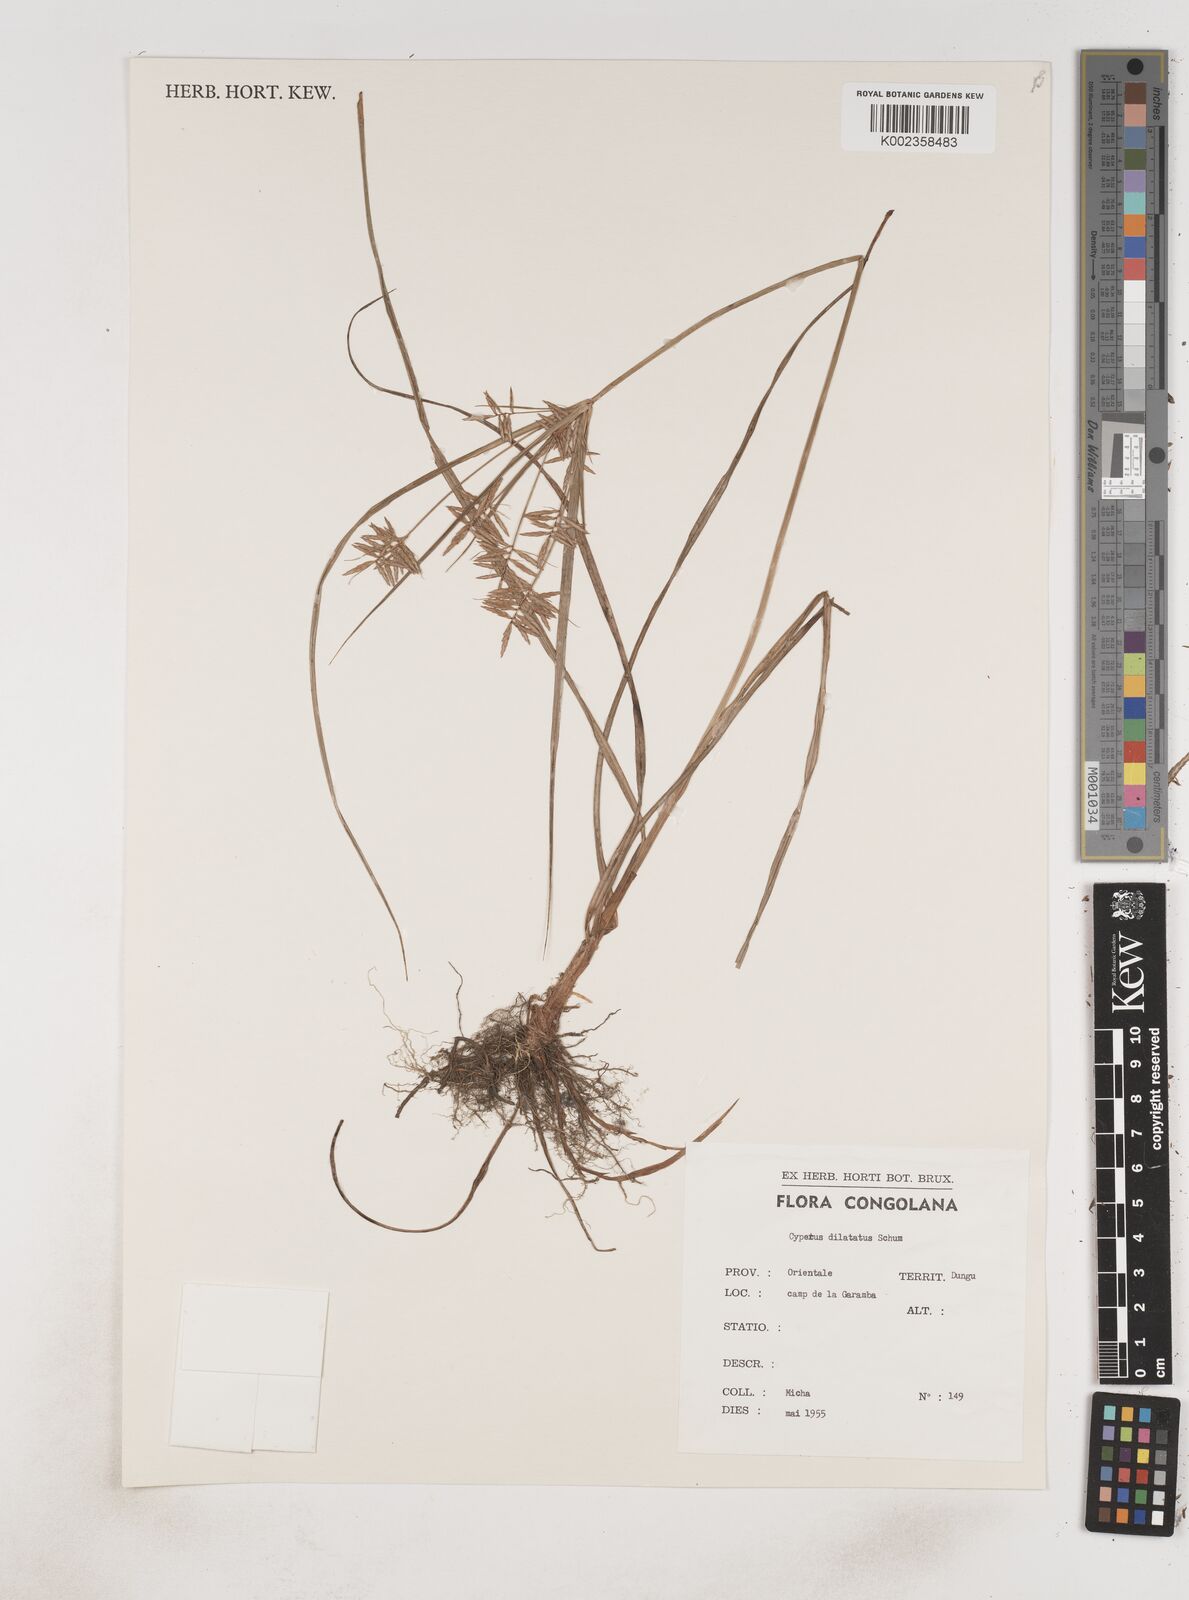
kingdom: Plantae
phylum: Tracheophyta
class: Liliopsida
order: Poales
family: Cyperaceae
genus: Cyperus
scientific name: Cyperus dilatatus
